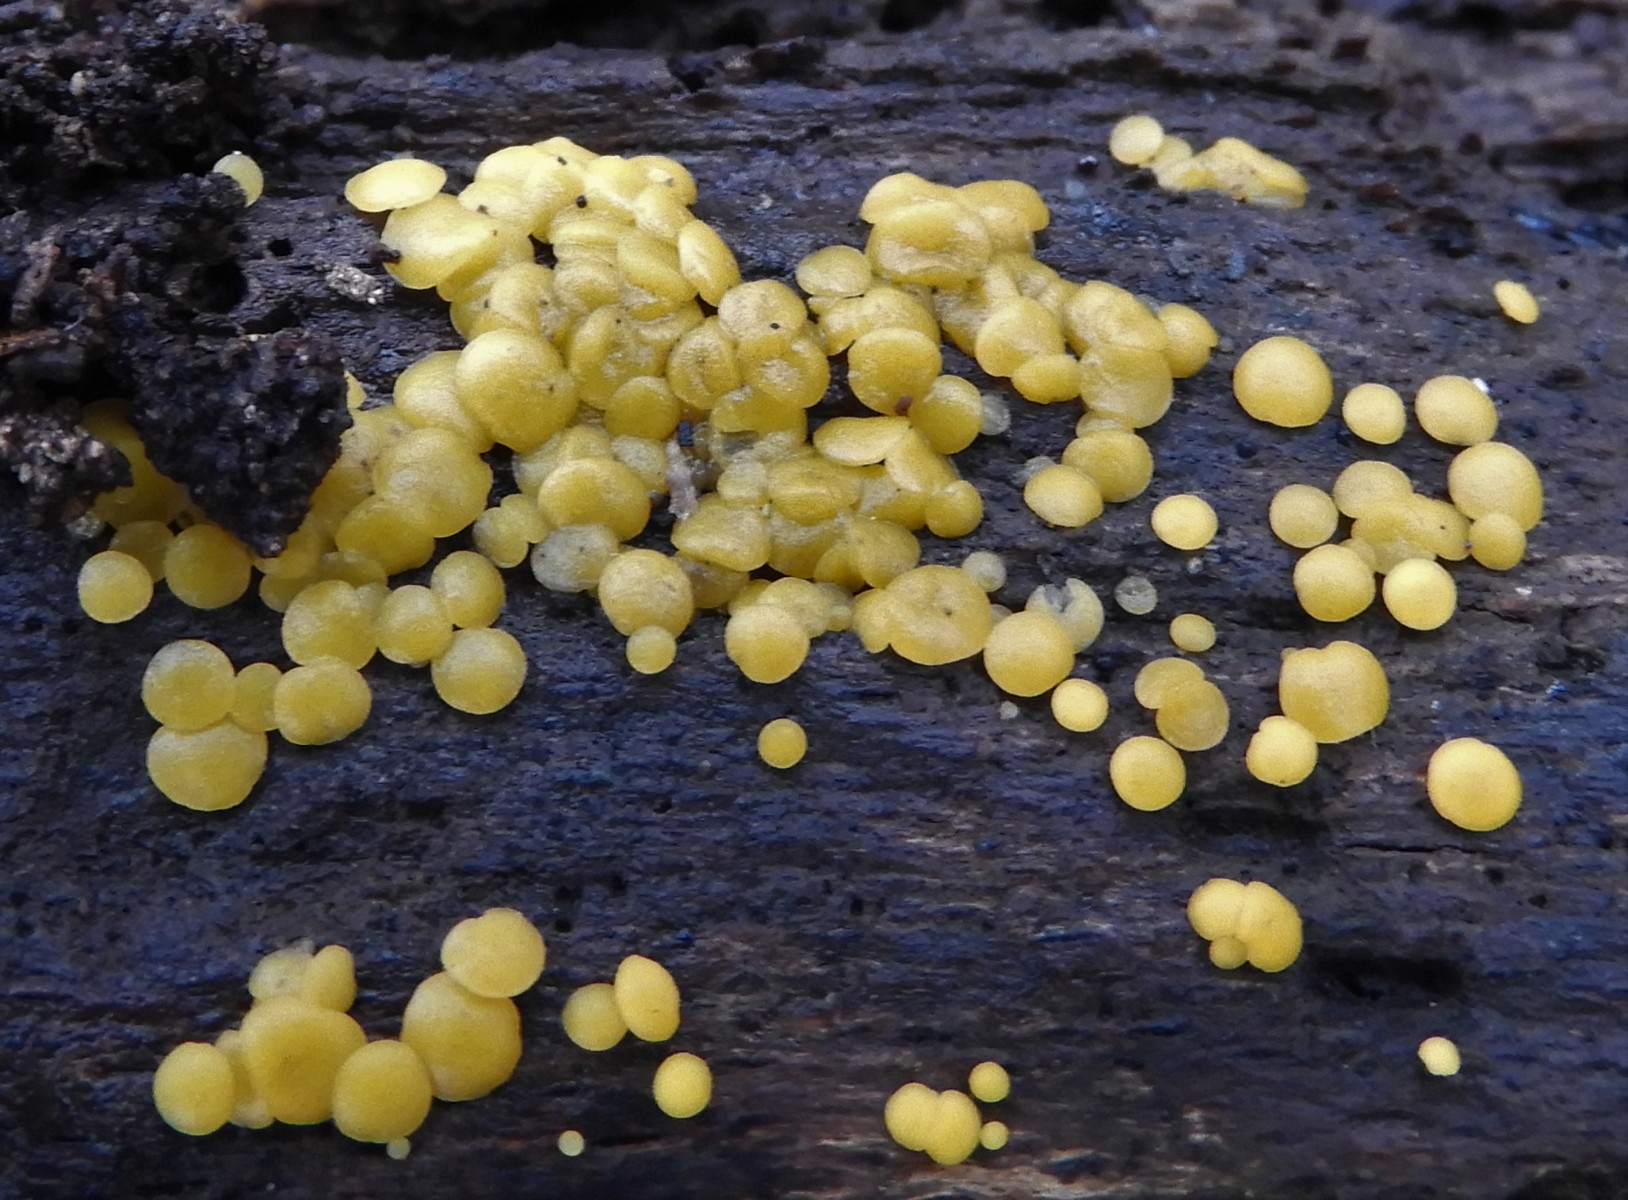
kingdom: Fungi
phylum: Ascomycota
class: Leotiomycetes
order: Helotiales
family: Pezizellaceae
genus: Calycina
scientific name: Calycina citrina
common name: almindelig gulskive
